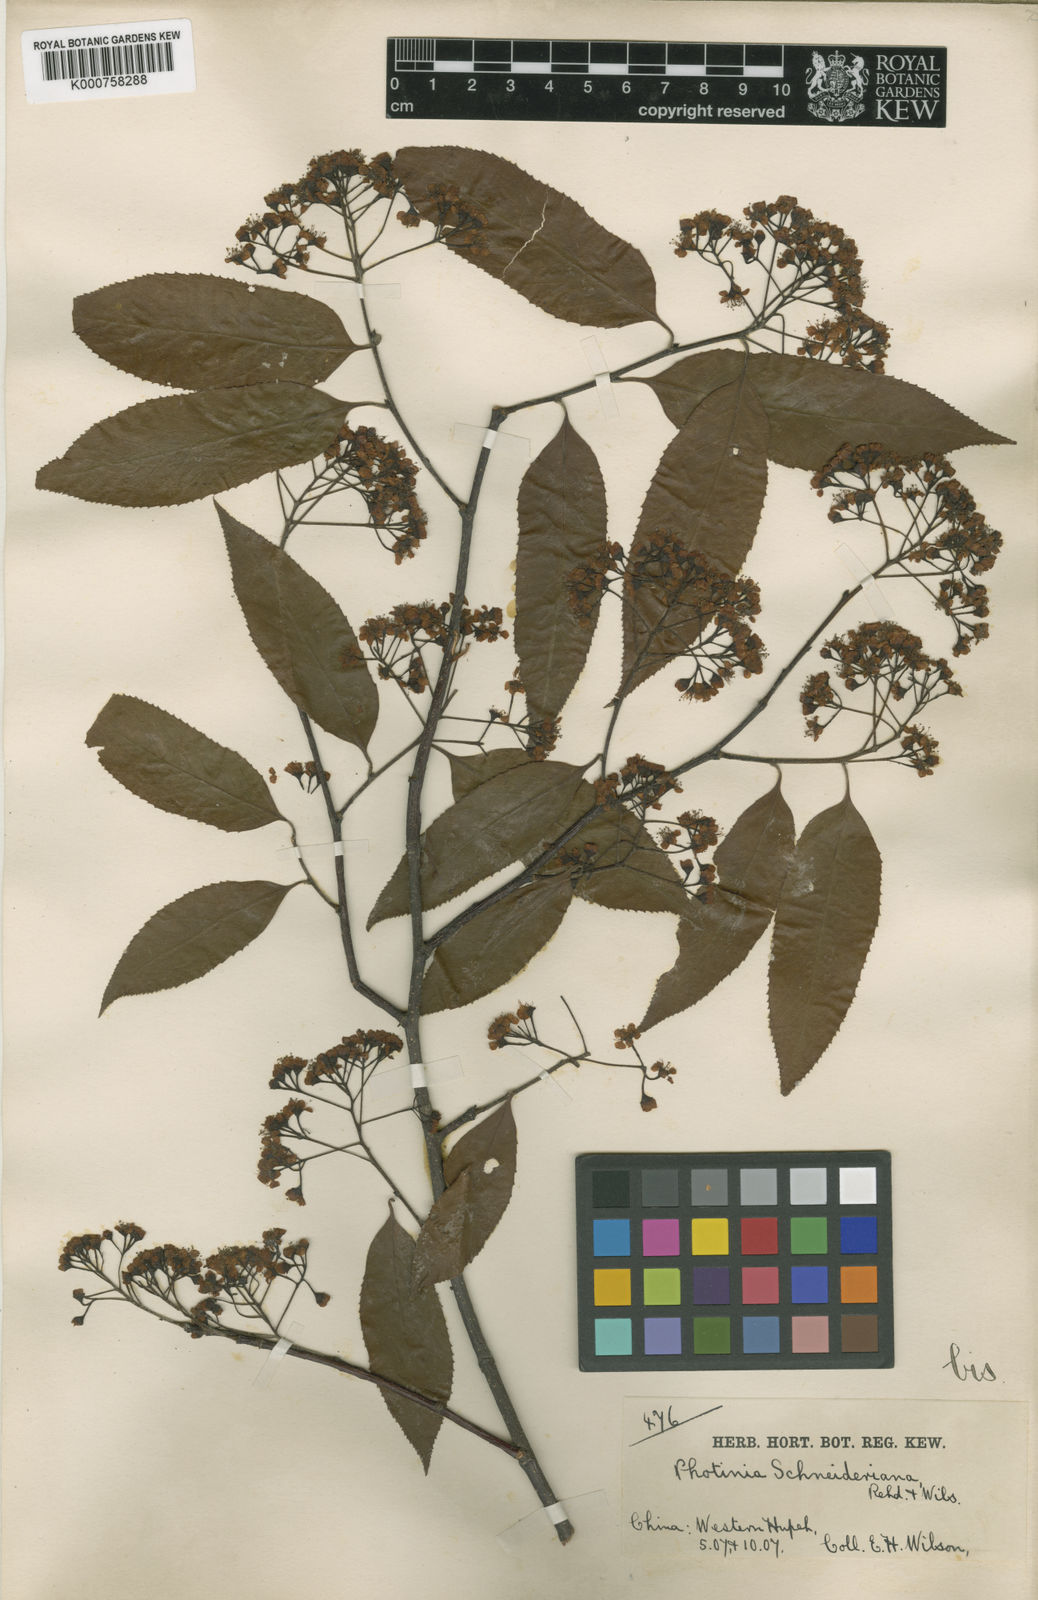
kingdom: Plantae
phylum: Tracheophyta
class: Magnoliopsida
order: Rosales
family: Rosaceae
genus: Pourthiaea
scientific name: Pourthiaea arguta
